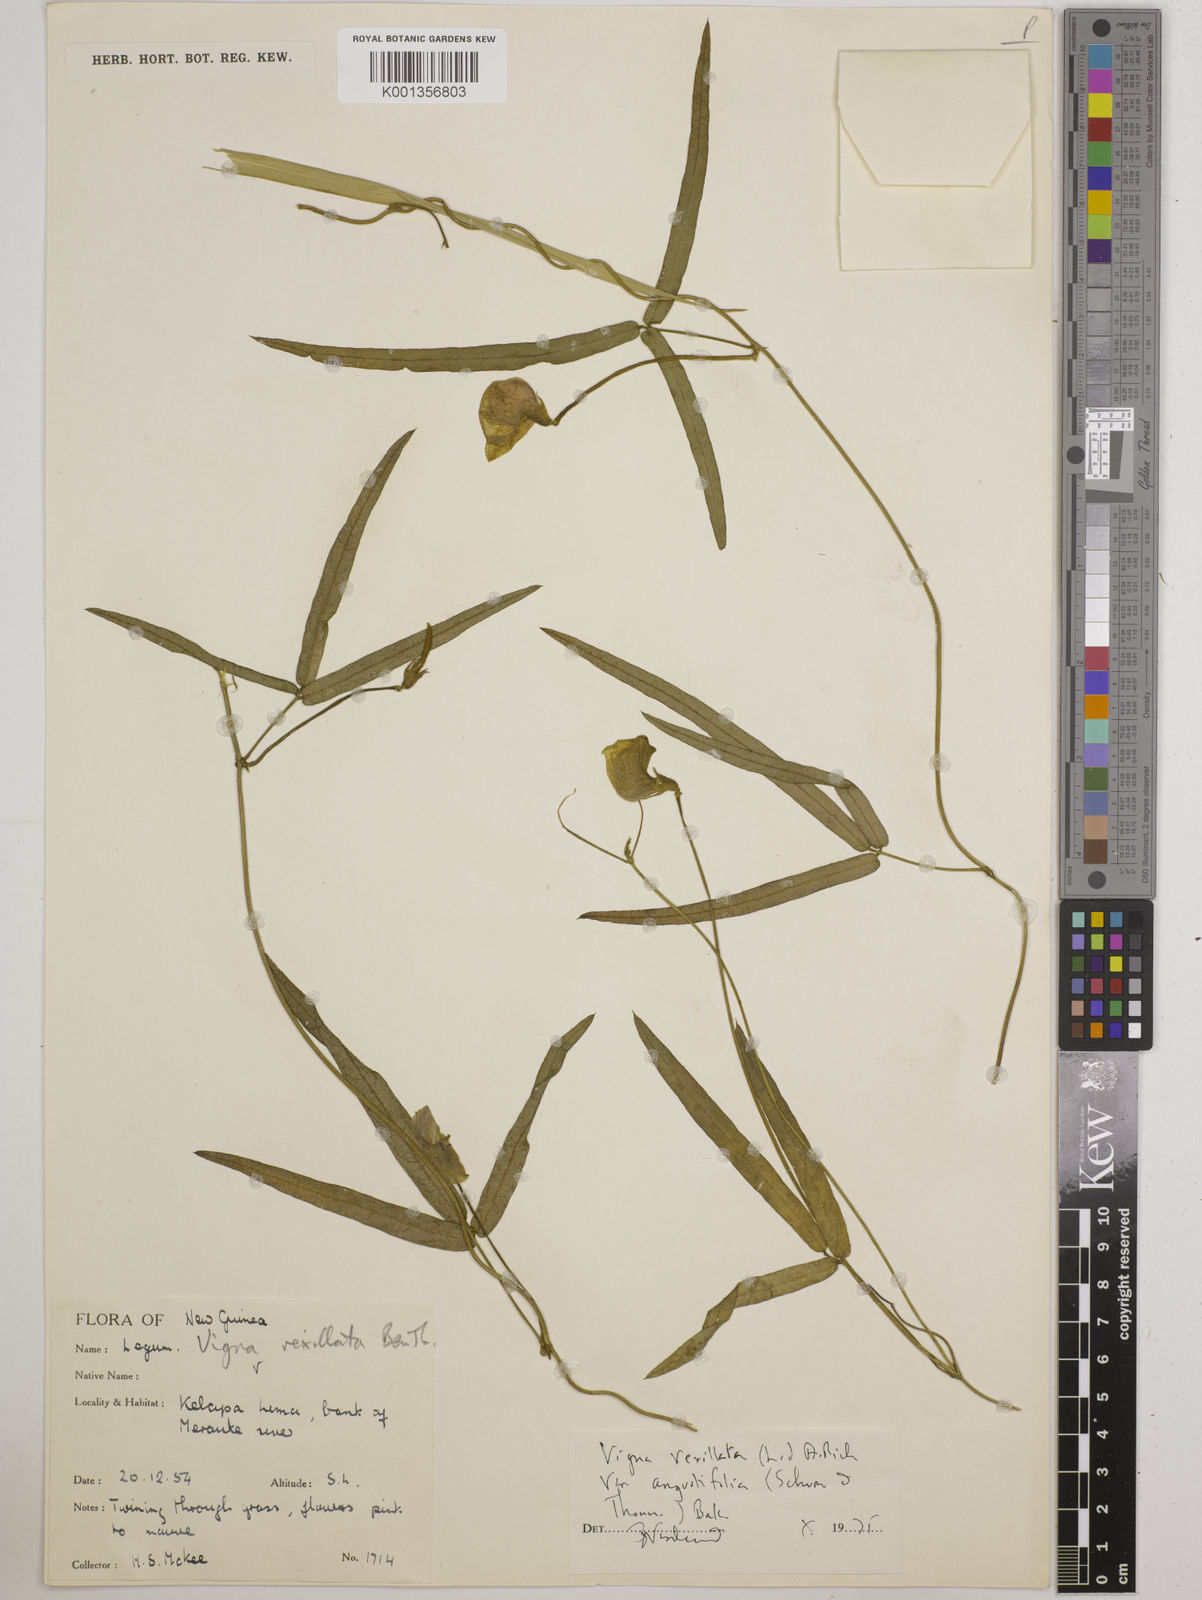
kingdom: Plantae
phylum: Tracheophyta
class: Magnoliopsida
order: Fabales
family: Fabaceae
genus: Vigna
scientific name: Vigna vexillata
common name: Zombi pea
